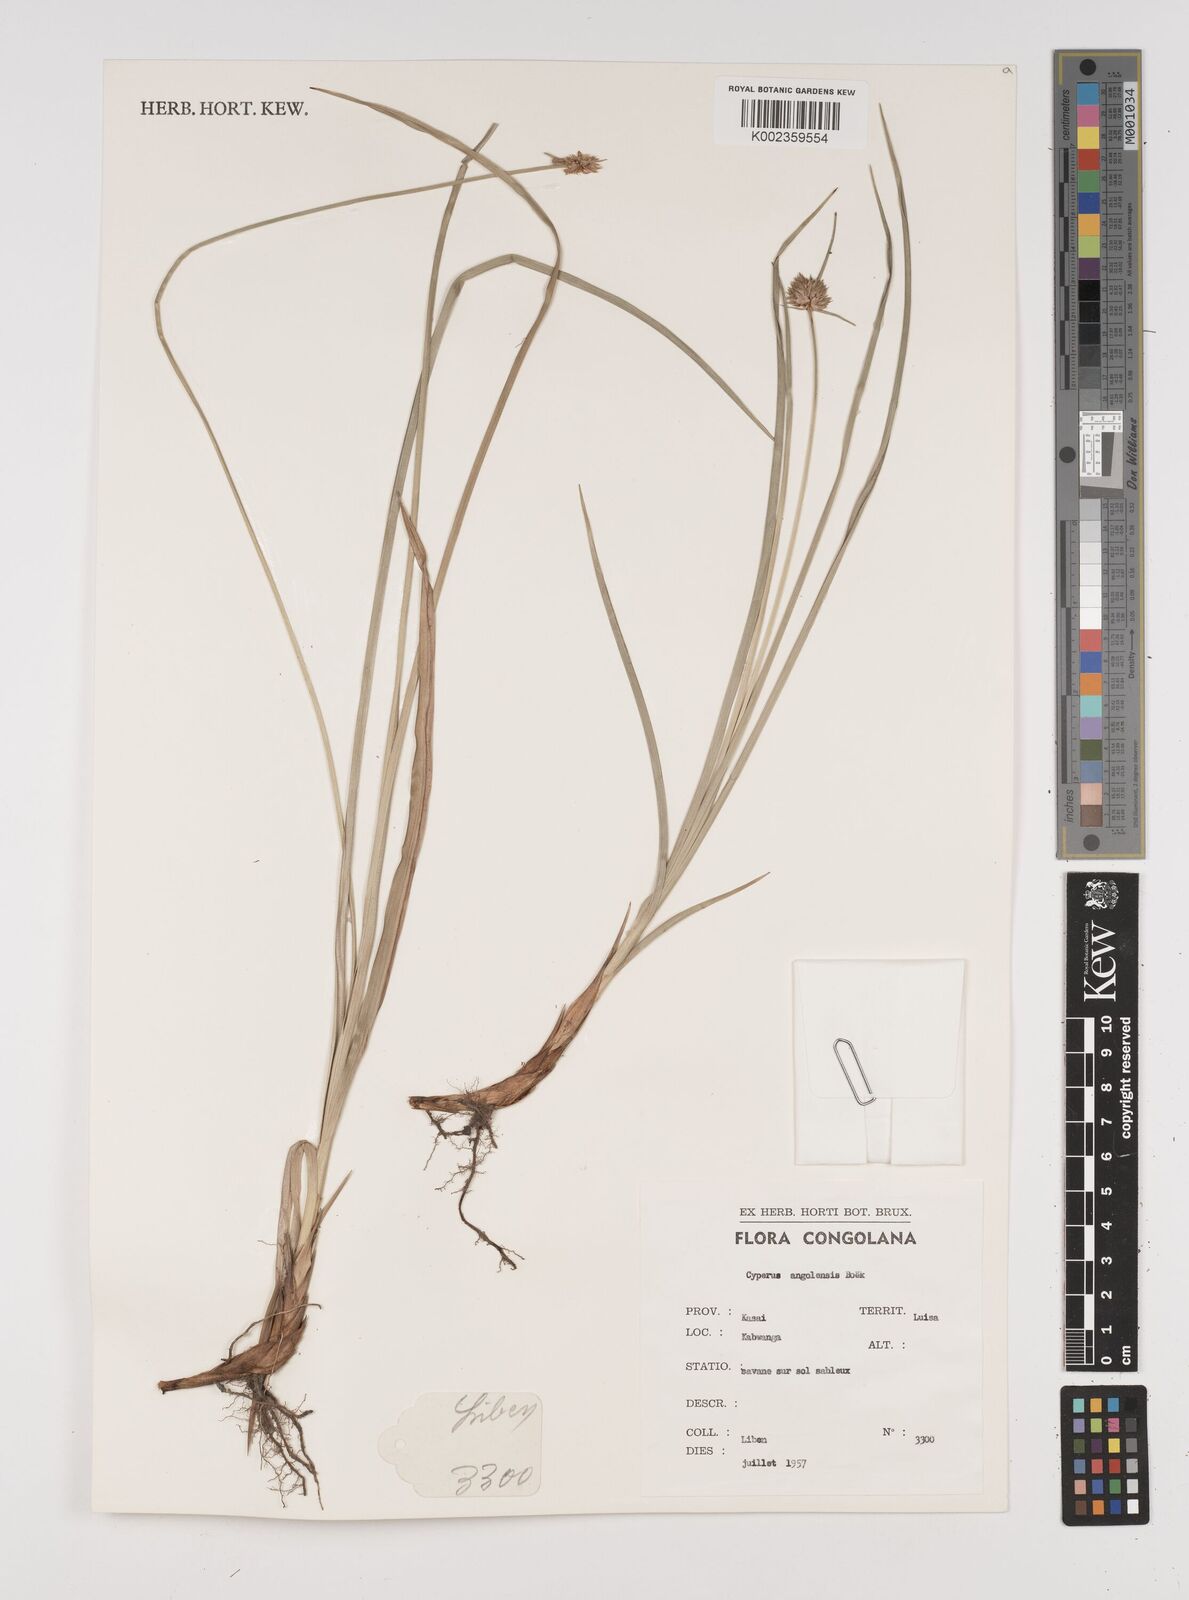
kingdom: Plantae
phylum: Tracheophyta
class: Liliopsida
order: Poales
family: Cyperaceae
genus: Cyperus
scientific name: Cyperus angolensis
